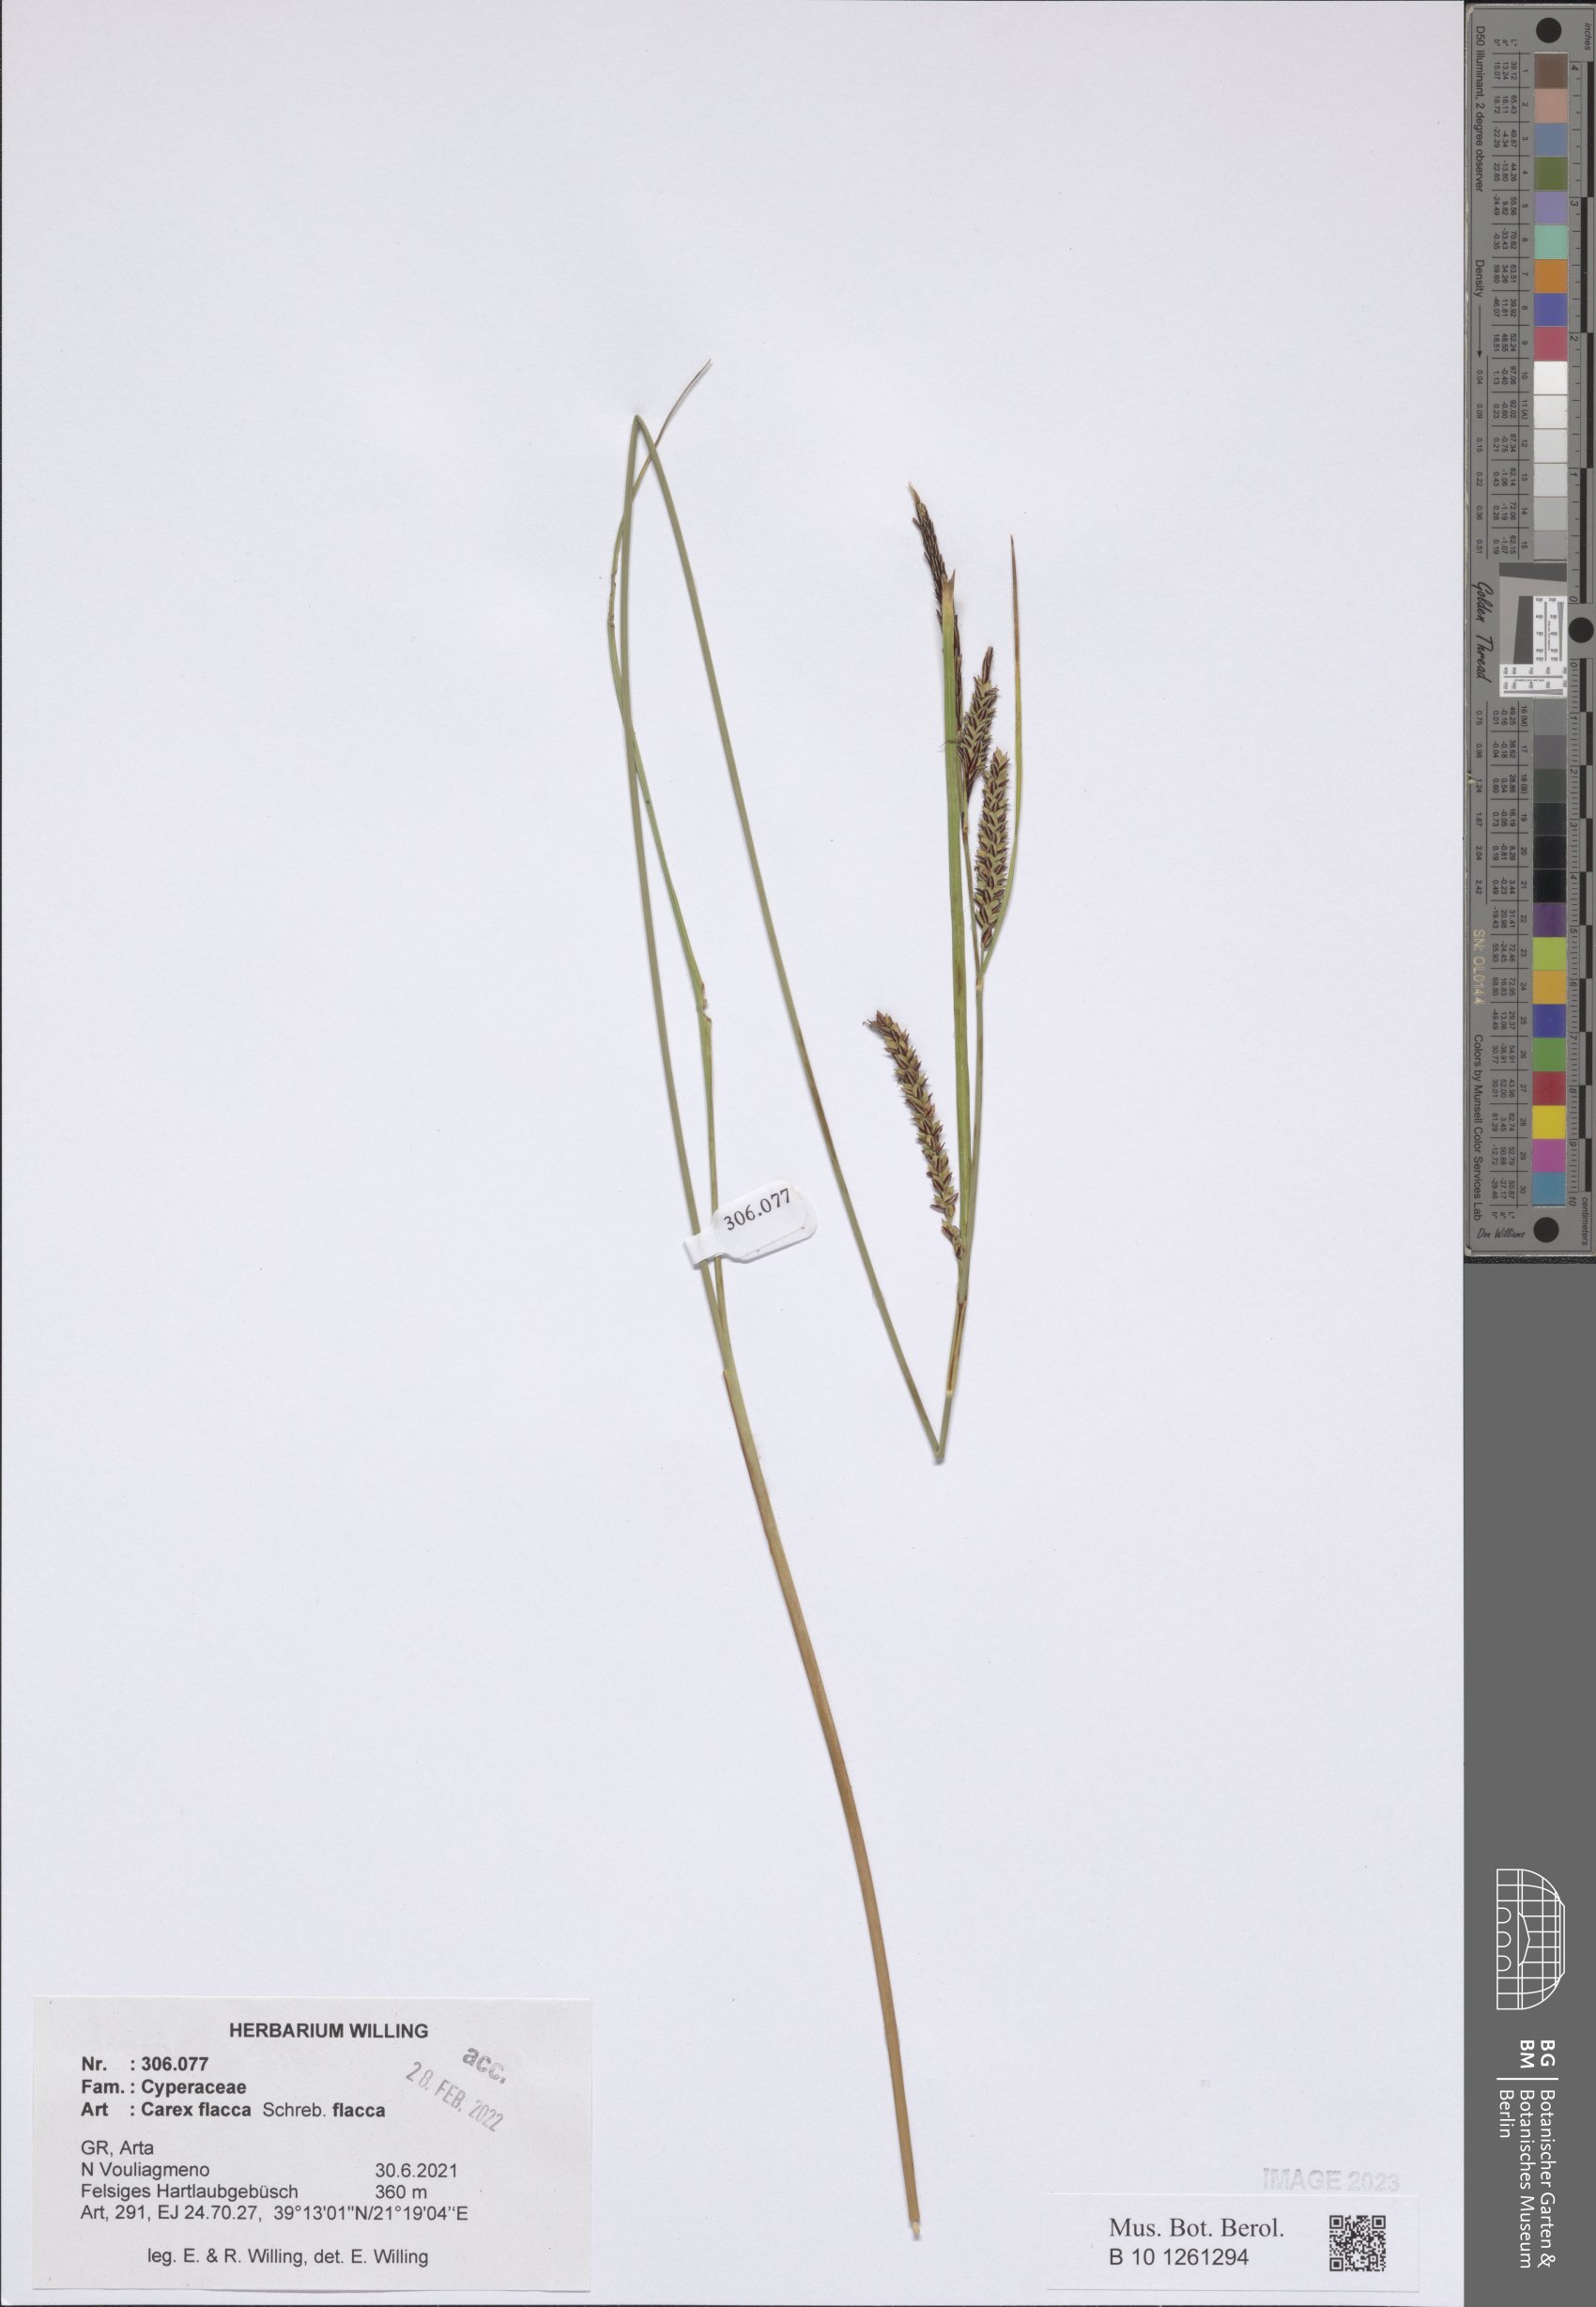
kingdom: Plantae
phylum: Tracheophyta
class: Liliopsida
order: Poales
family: Cyperaceae
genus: Carex
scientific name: Carex distans
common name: Distant sedge
